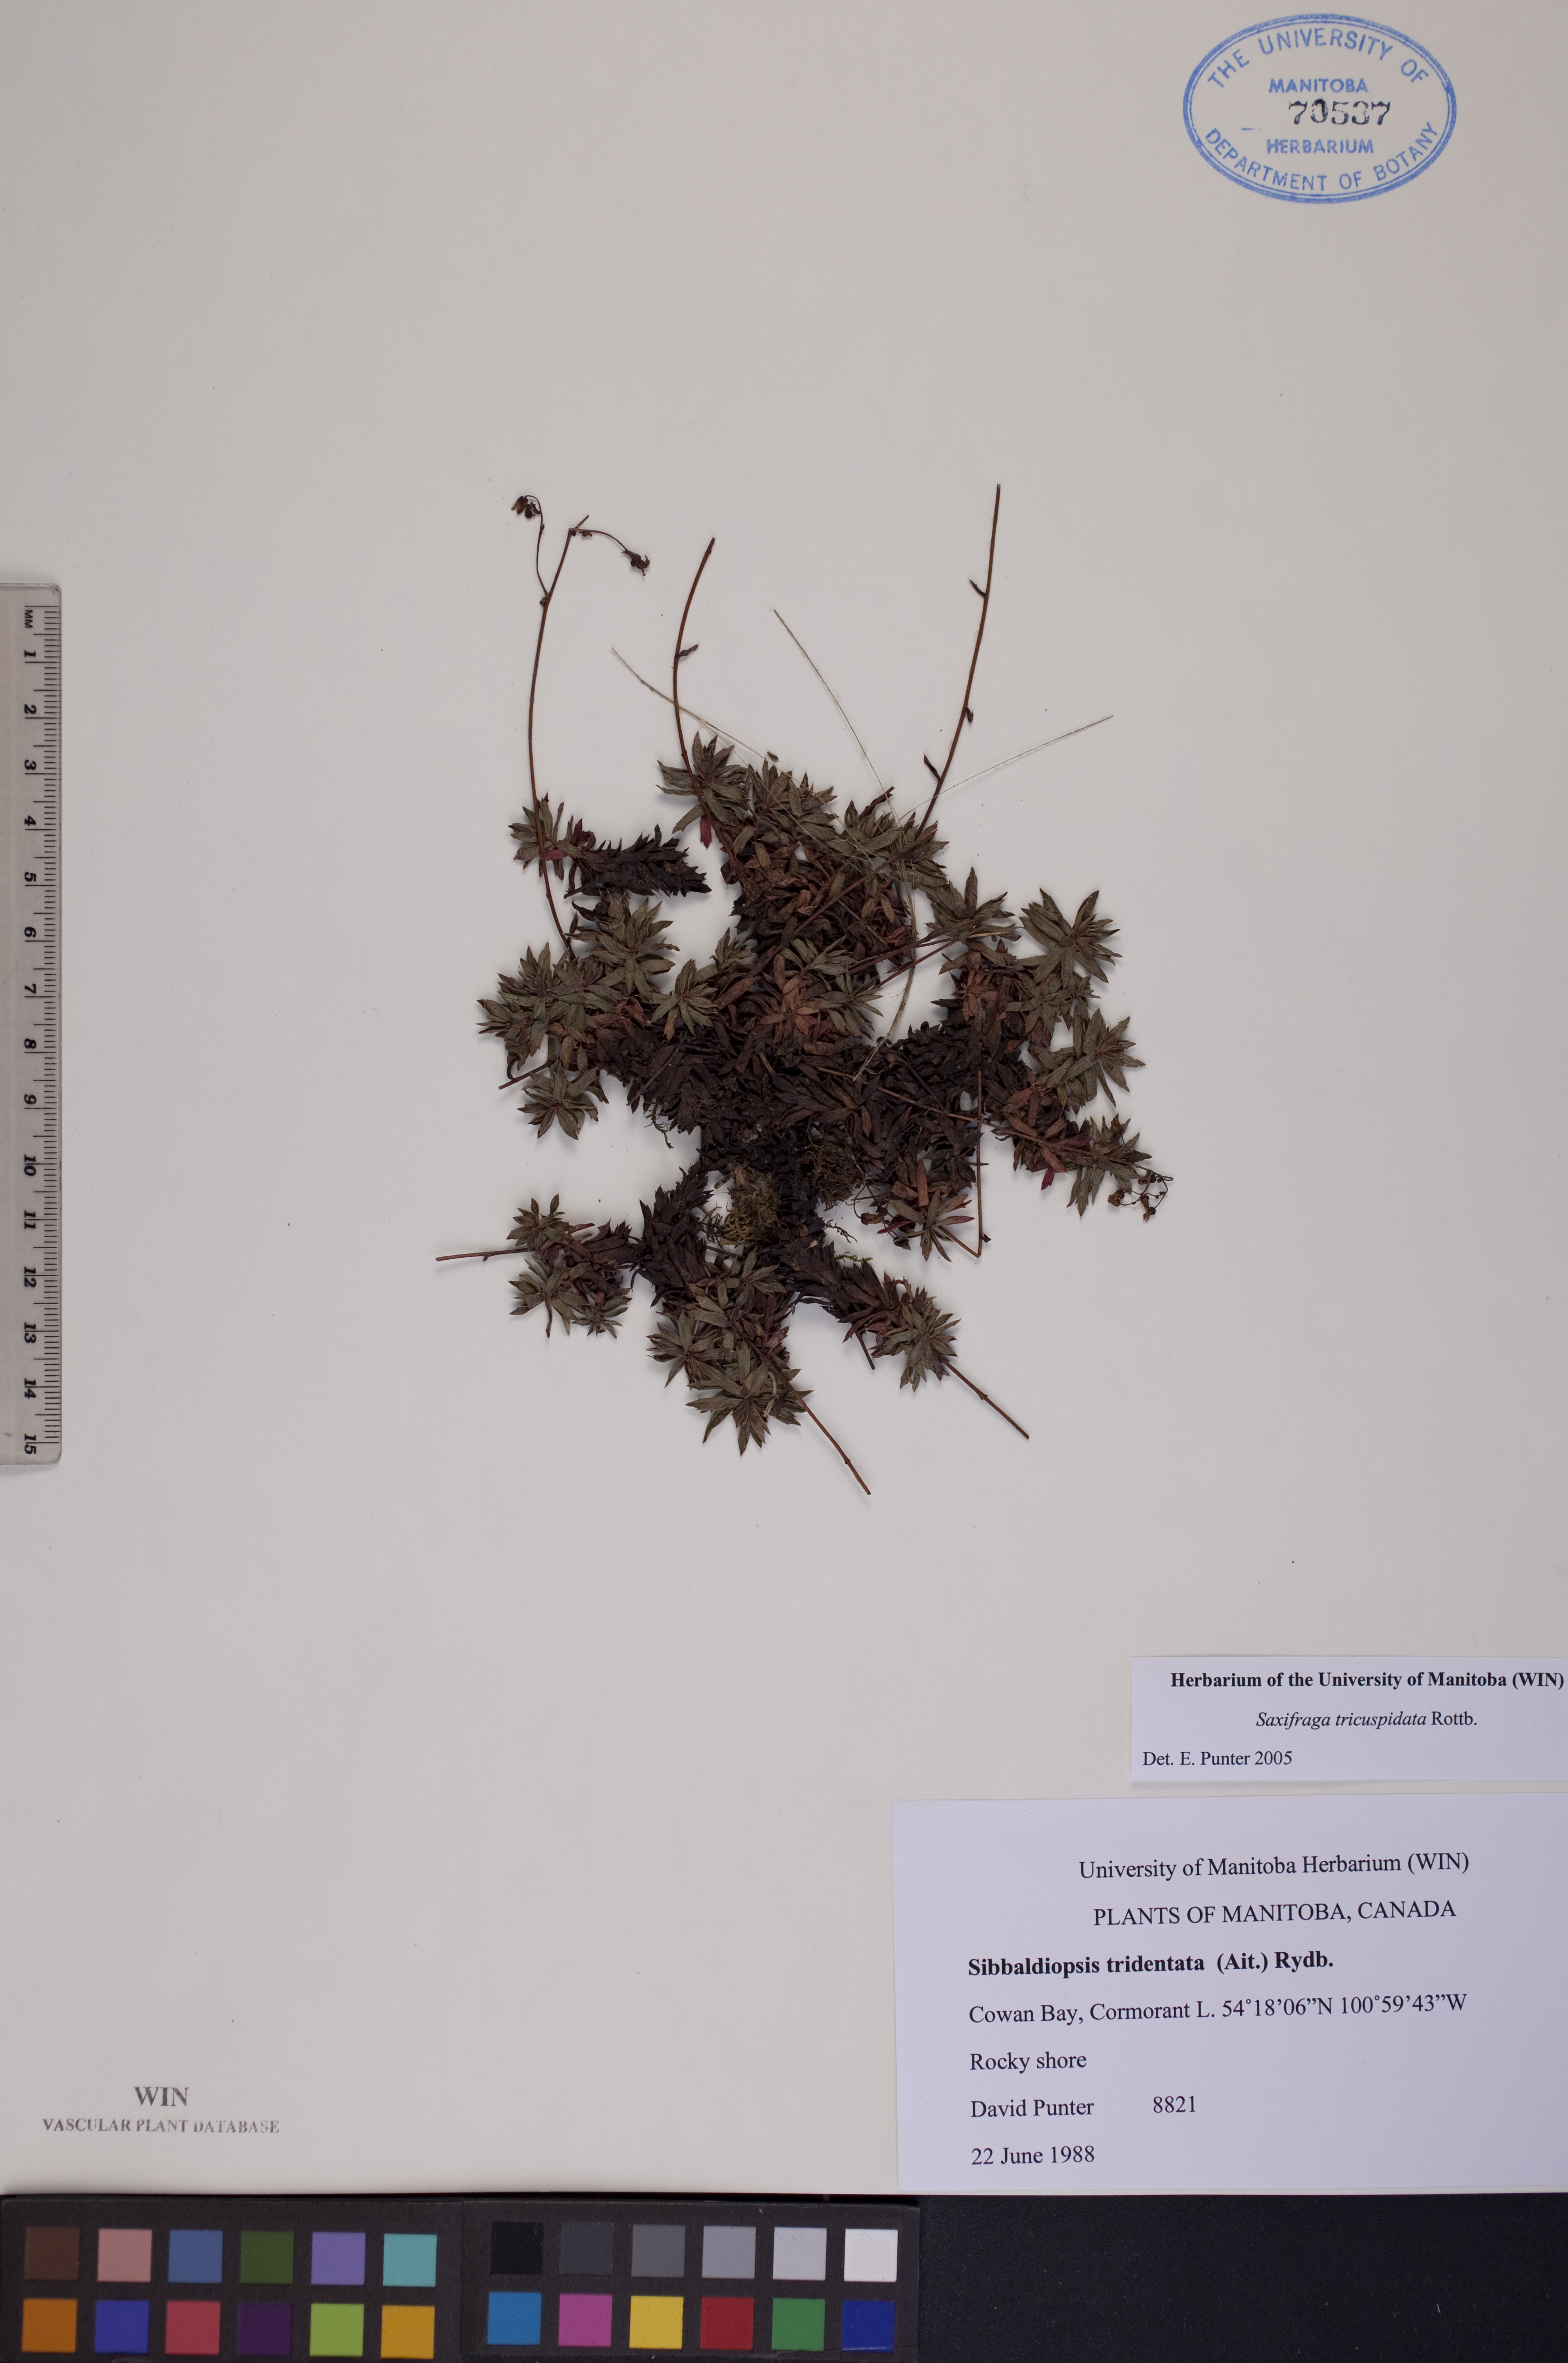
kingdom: Plantae
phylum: Tracheophyta
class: Magnoliopsida
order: Saxifragales
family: Saxifragaceae
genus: Saxifraga
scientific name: Saxifraga tricuspidata
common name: Prickly saxifrage
